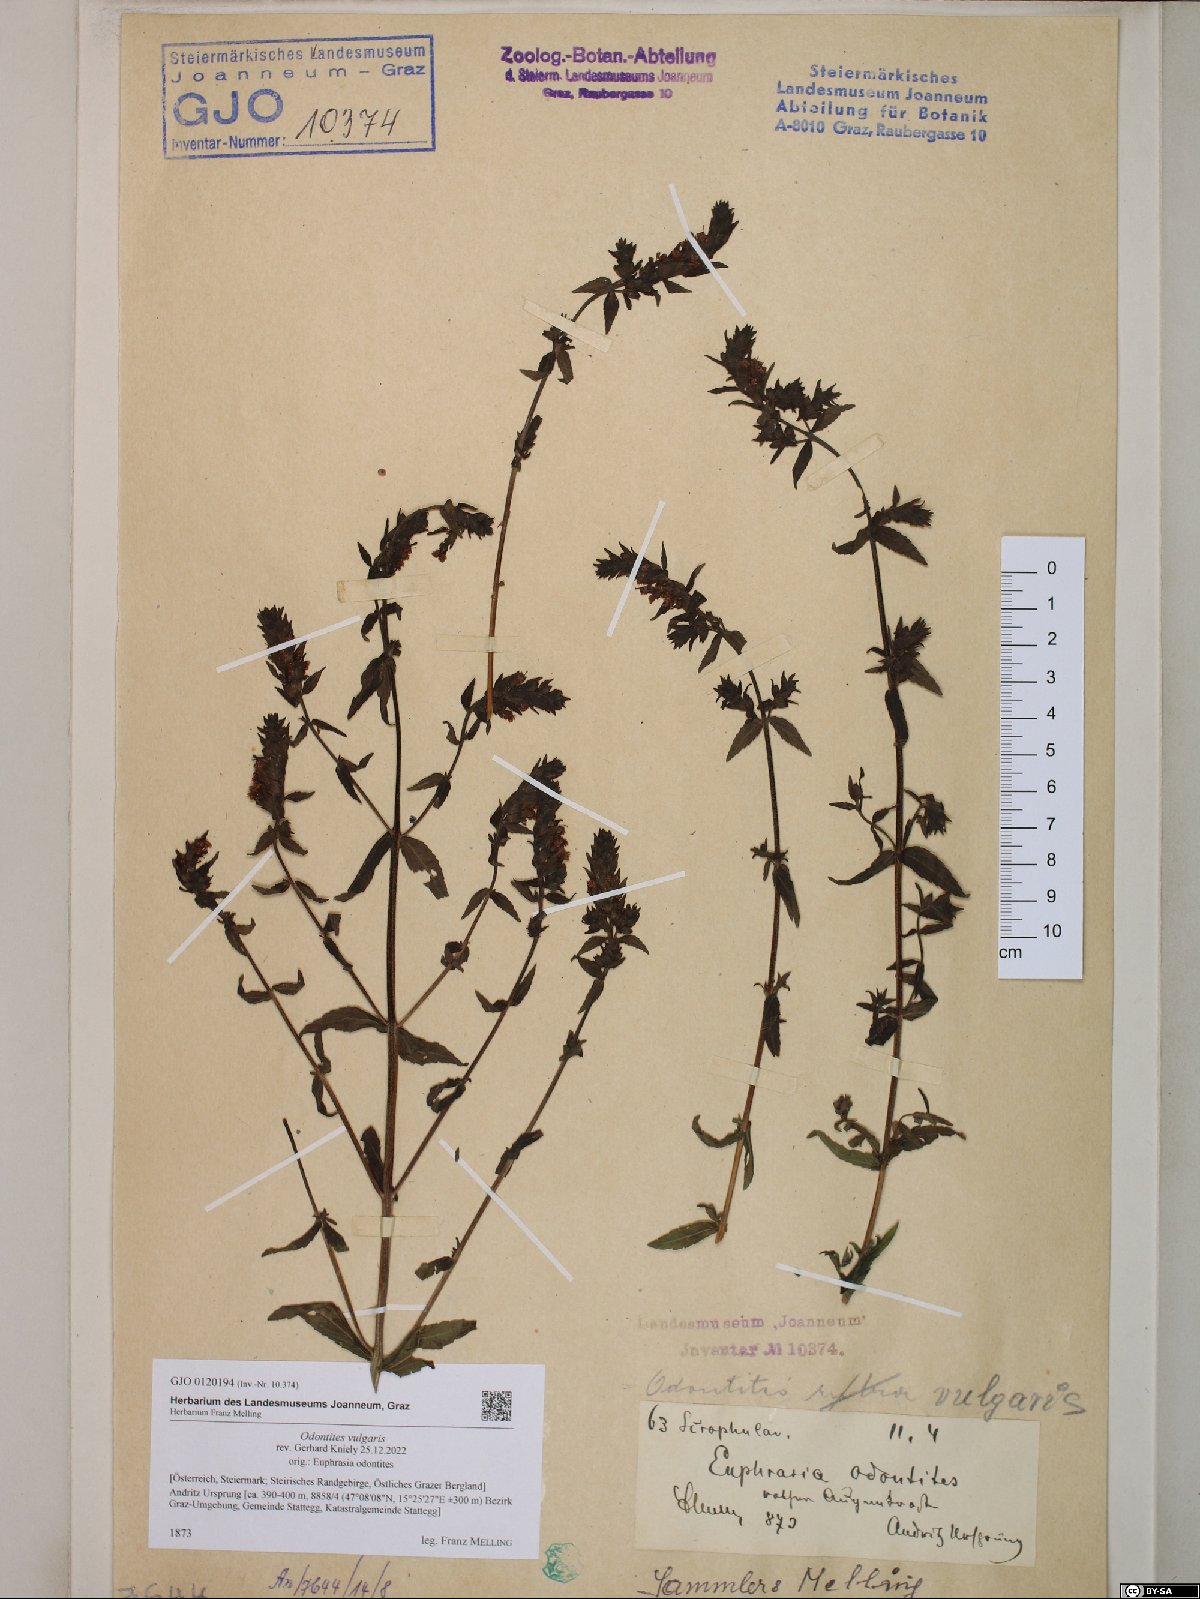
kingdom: Plantae
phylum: Tracheophyta
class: Magnoliopsida
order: Lamiales
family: Orobanchaceae
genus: Odontites
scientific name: Odontites vulgaris
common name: Broomrape
